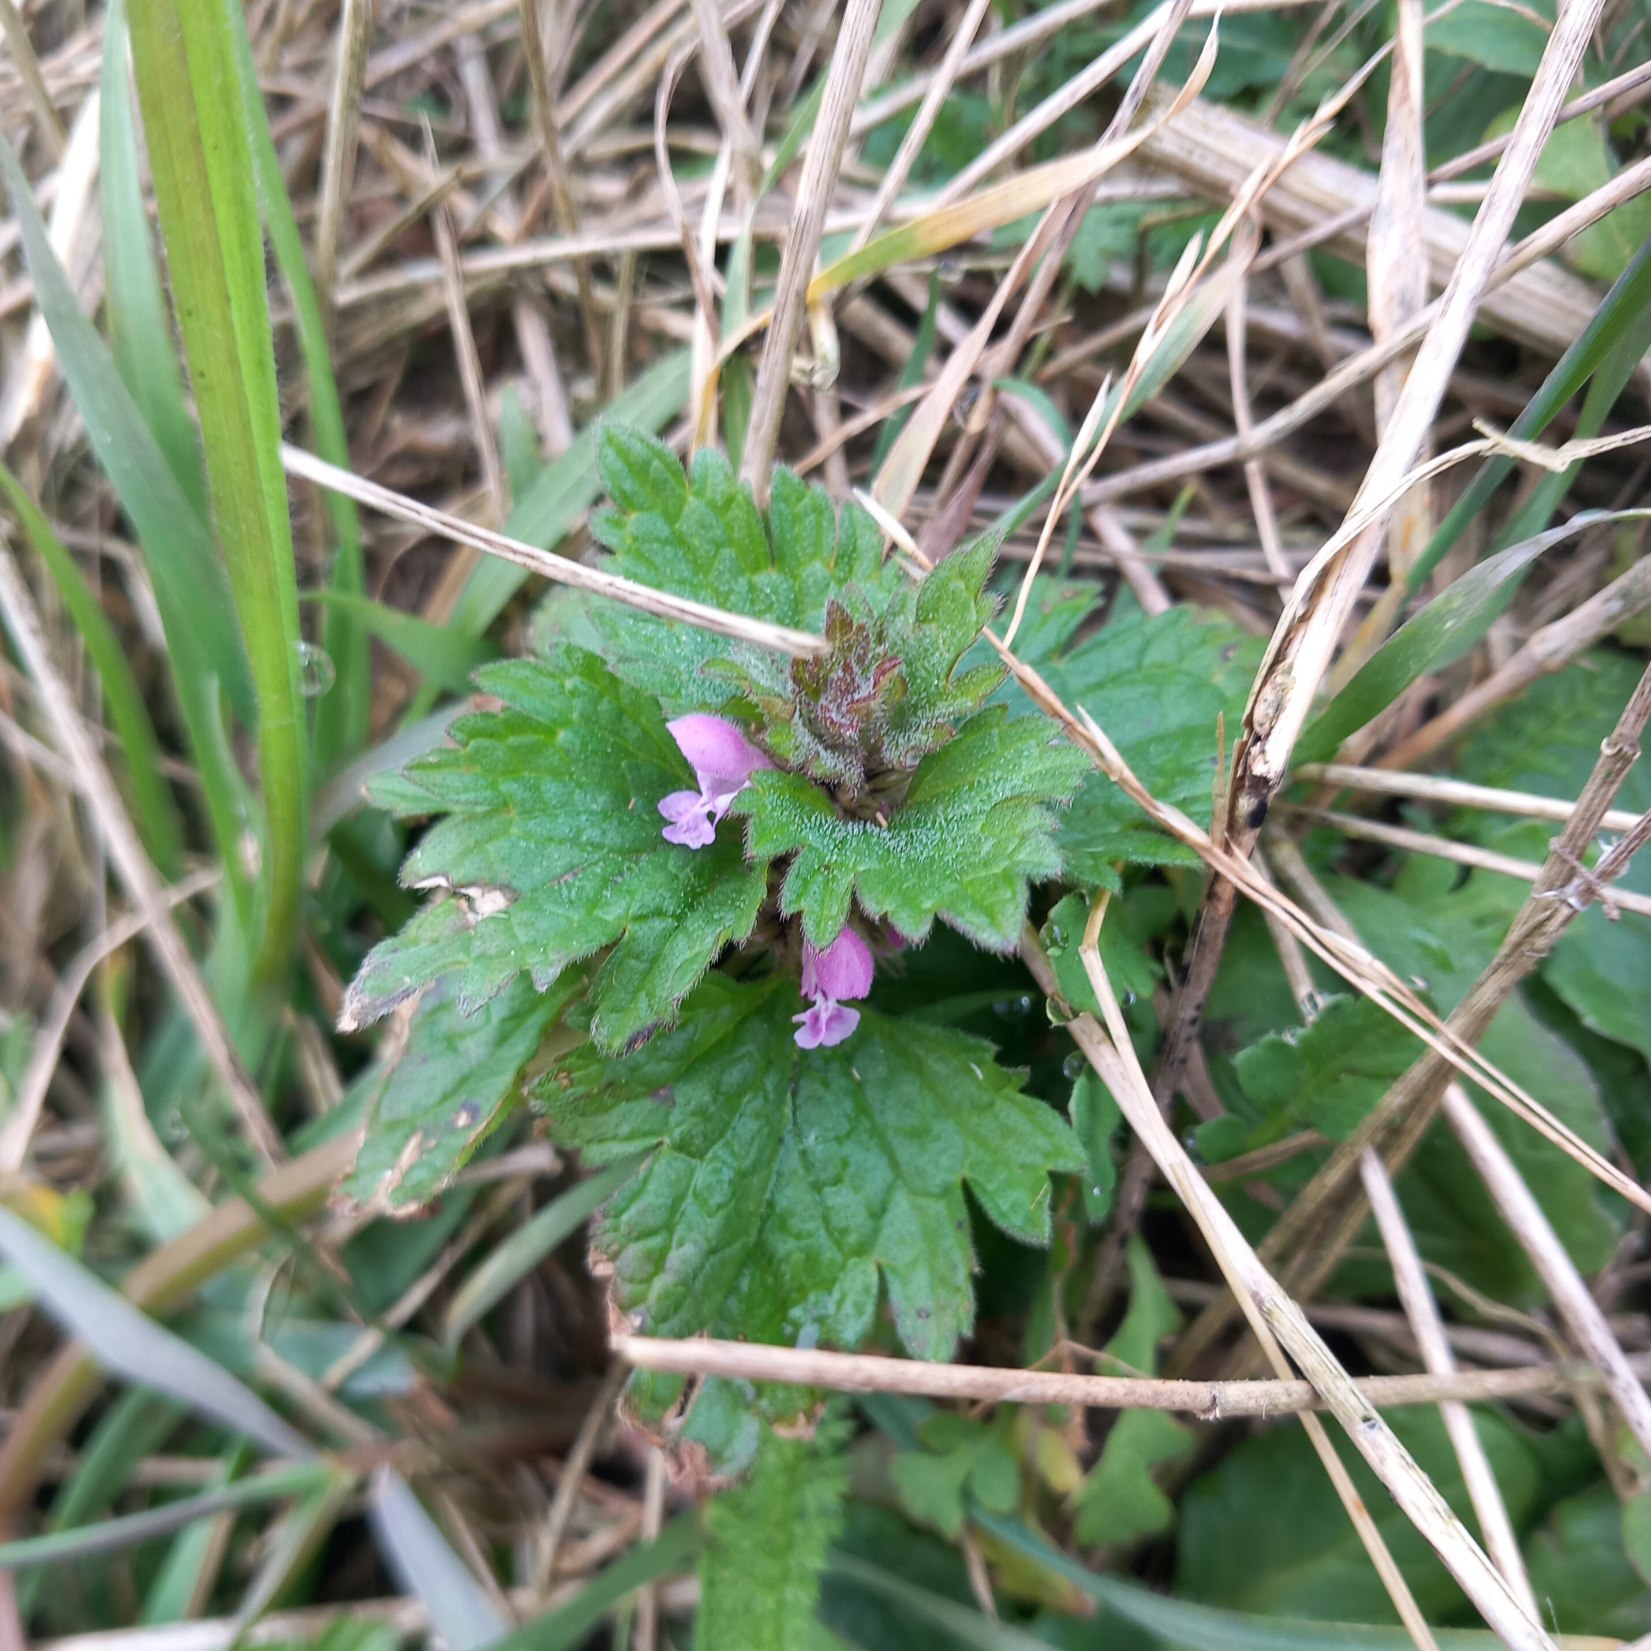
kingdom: Plantae
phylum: Tracheophyta
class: Magnoliopsida
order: Lamiales
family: Lamiaceae
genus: Lamium
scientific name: Lamium hybridum
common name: Fliget tvetand
